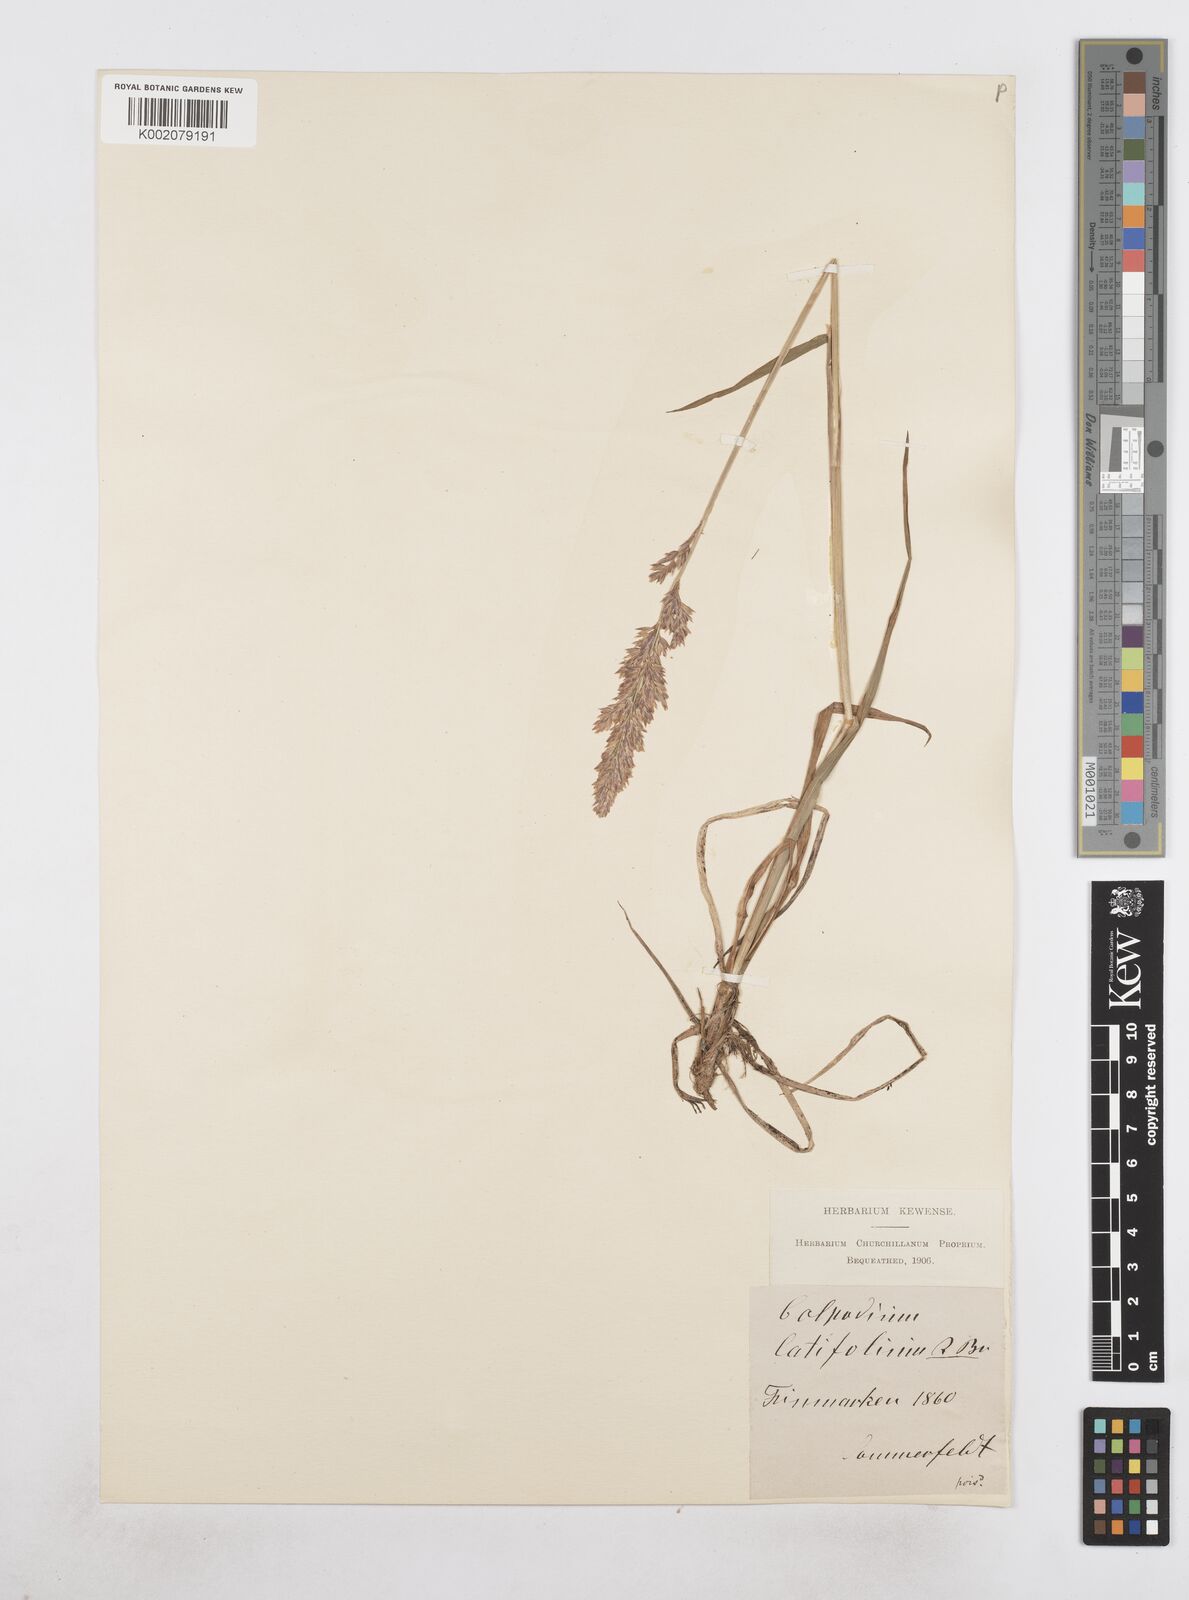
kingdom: Plantae
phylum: Tracheophyta
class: Liliopsida
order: Poales
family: Poaceae
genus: Arctagrostis
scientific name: Arctagrostis latifolia
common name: Arctic grass
